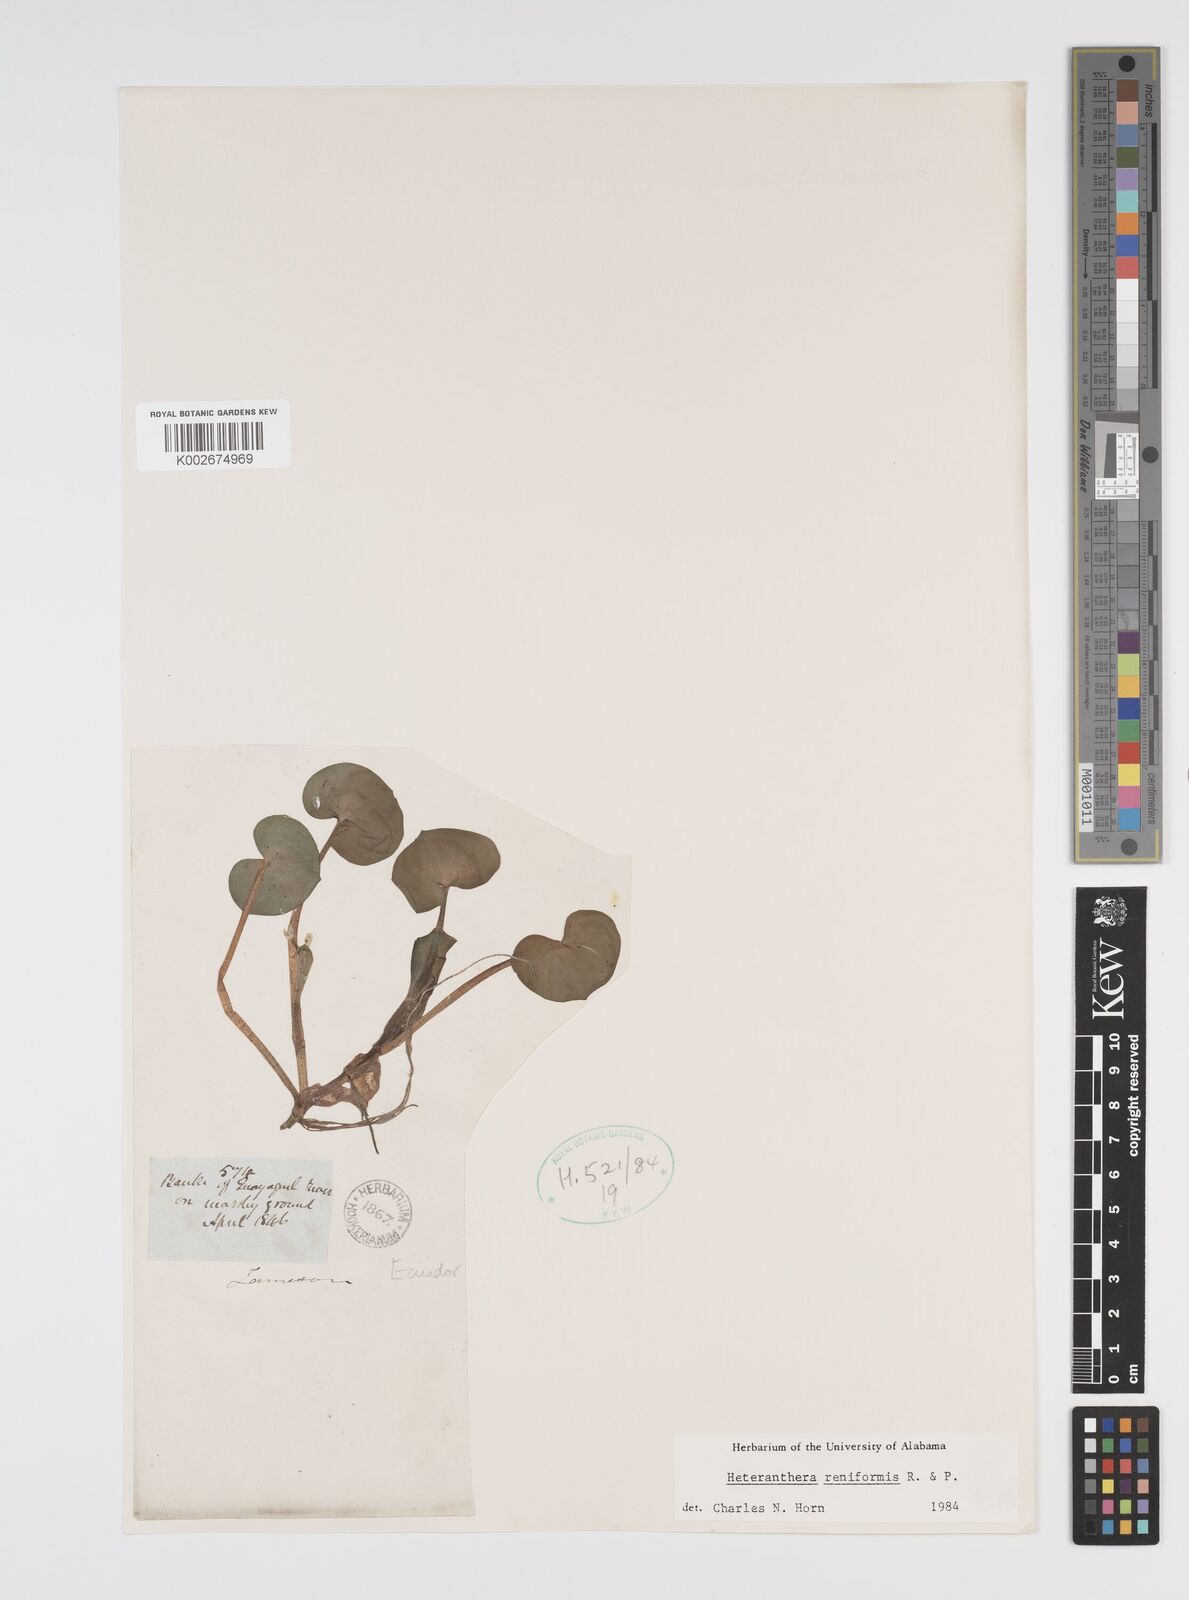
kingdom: Plantae
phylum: Tracheophyta
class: Liliopsida
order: Commelinales
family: Pontederiaceae
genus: Heteranthera
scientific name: Heteranthera reniformis
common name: Kidneyleaf mudplantain
